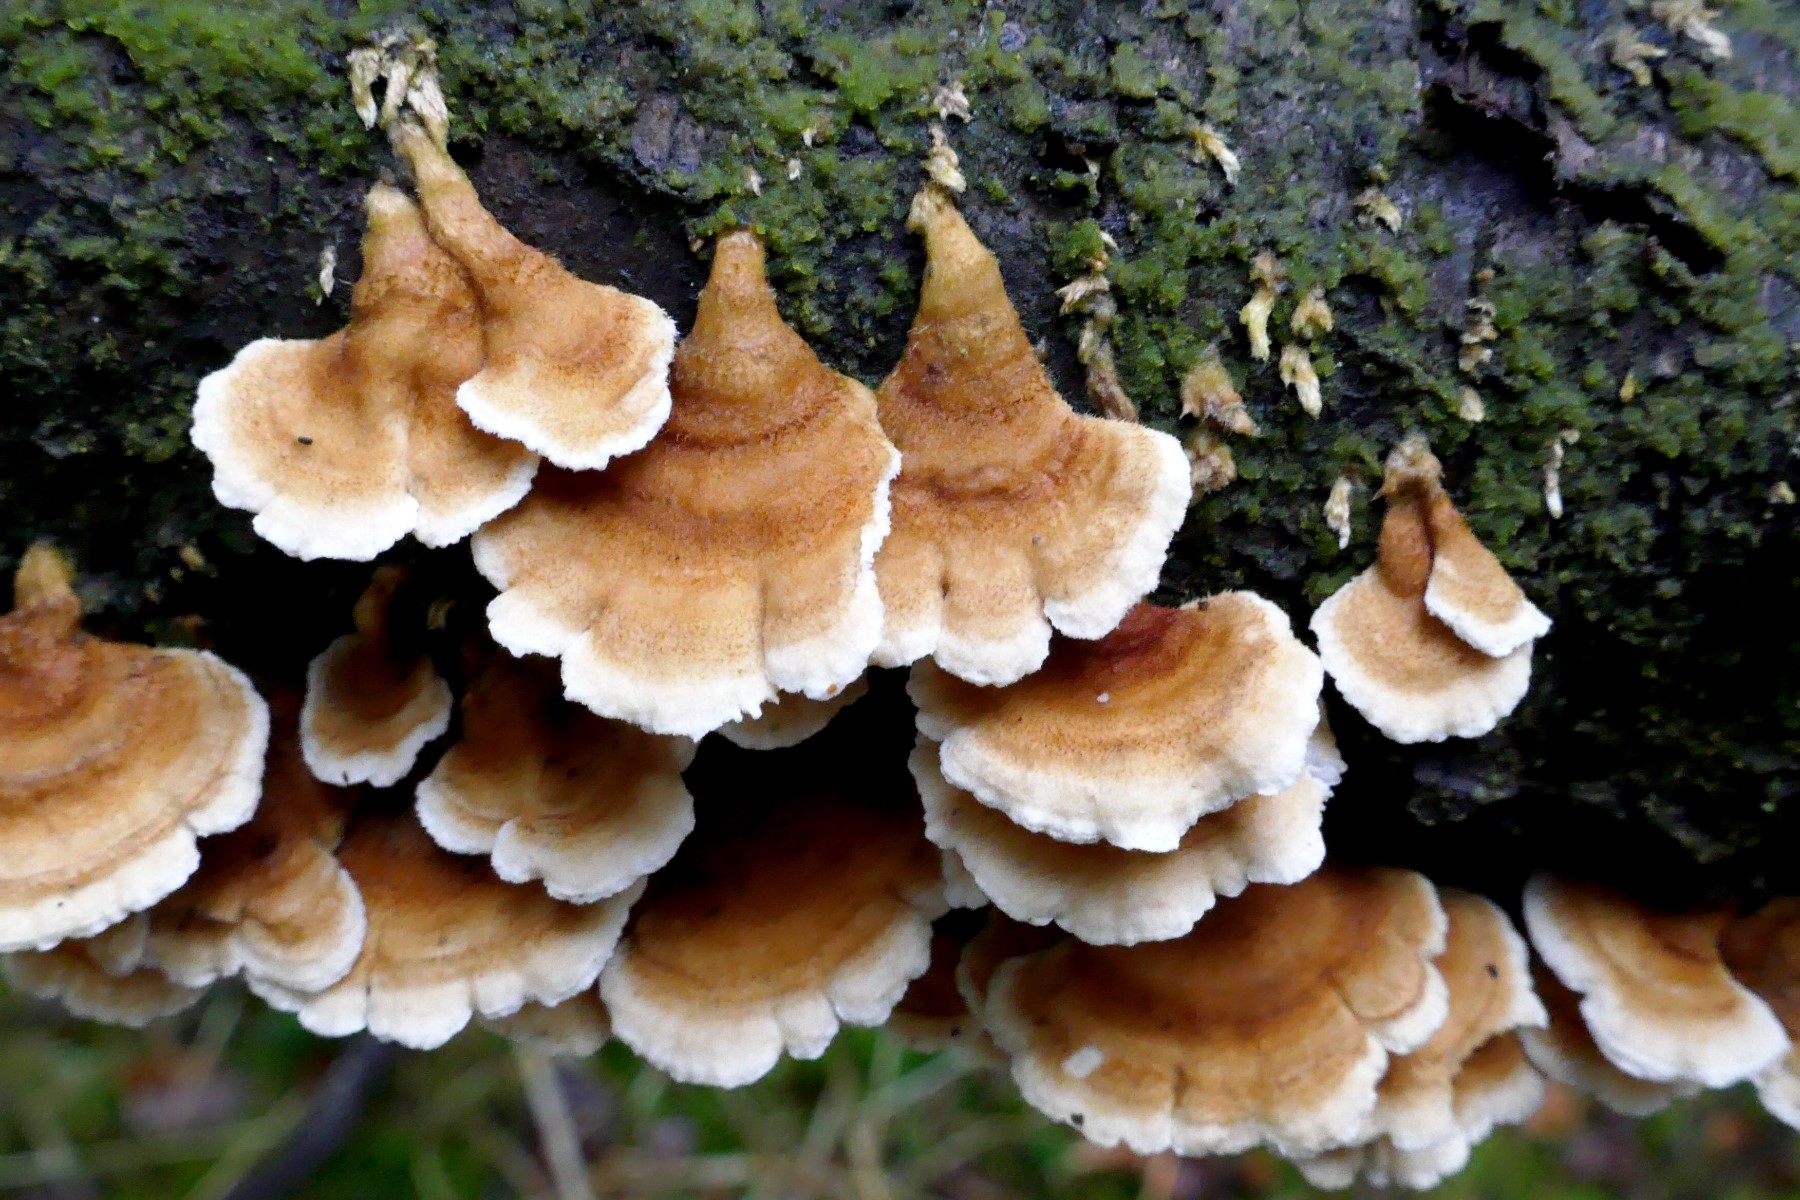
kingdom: Fungi
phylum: Basidiomycota
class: Agaricomycetes
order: Amylocorticiales
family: Amylocorticiaceae
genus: Plicaturopsis
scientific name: Plicaturopsis crispa
